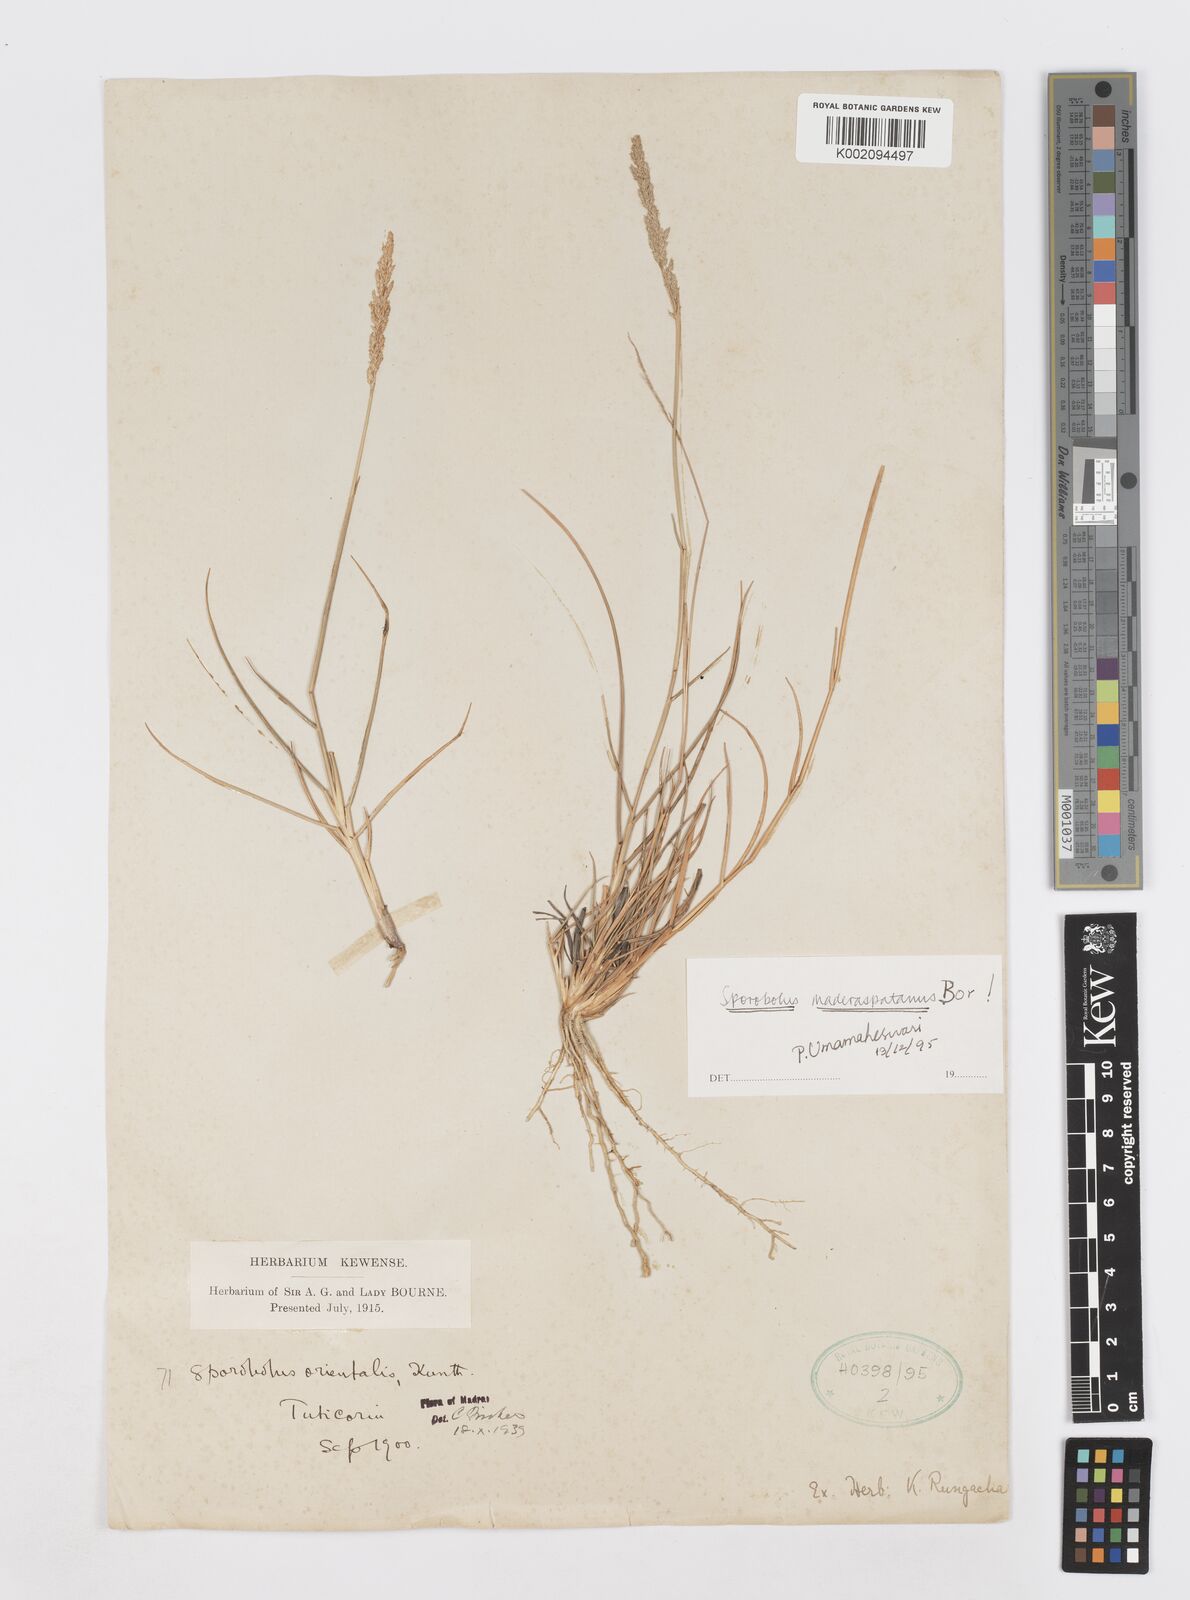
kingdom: Plantae
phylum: Tracheophyta
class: Liliopsida
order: Poales
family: Poaceae
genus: Sporobolus
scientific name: Sporobolus maderaspatanus
